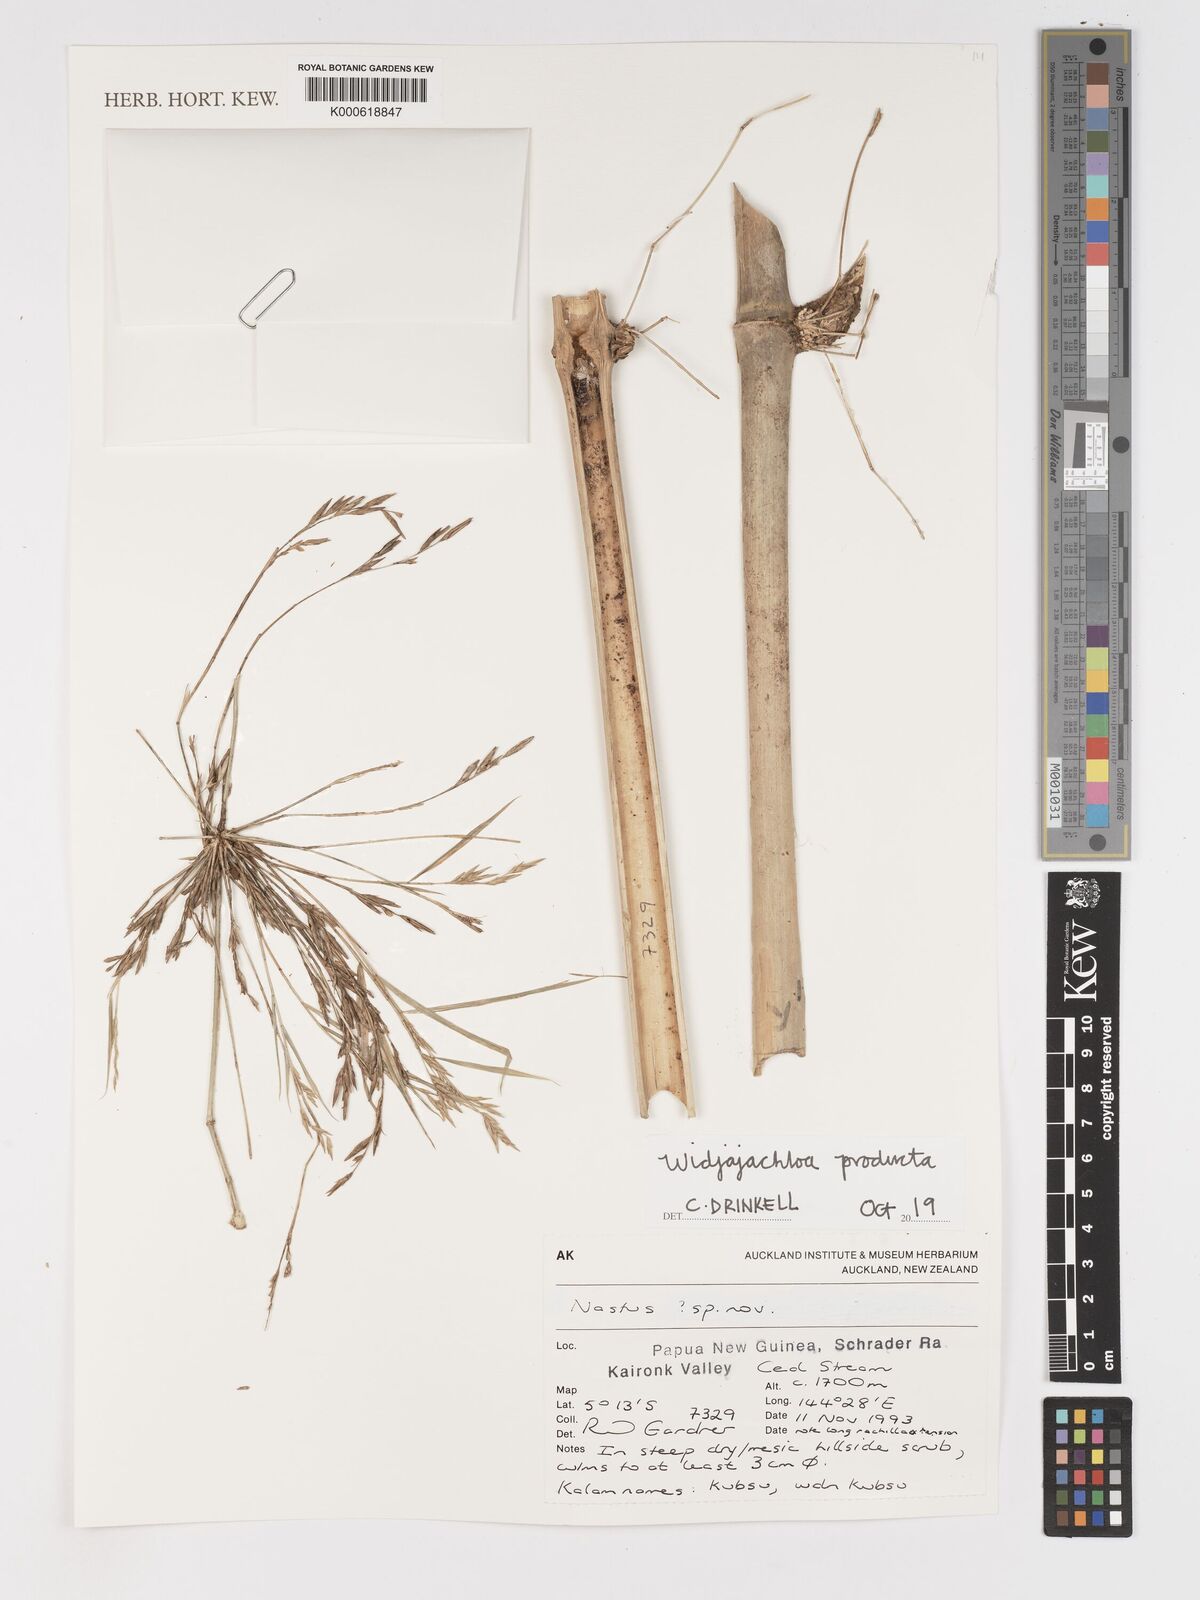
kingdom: Plantae
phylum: Tracheophyta
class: Liliopsida
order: Poales
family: Poaceae
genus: Widjajachloa
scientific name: Widjajachloa producta
